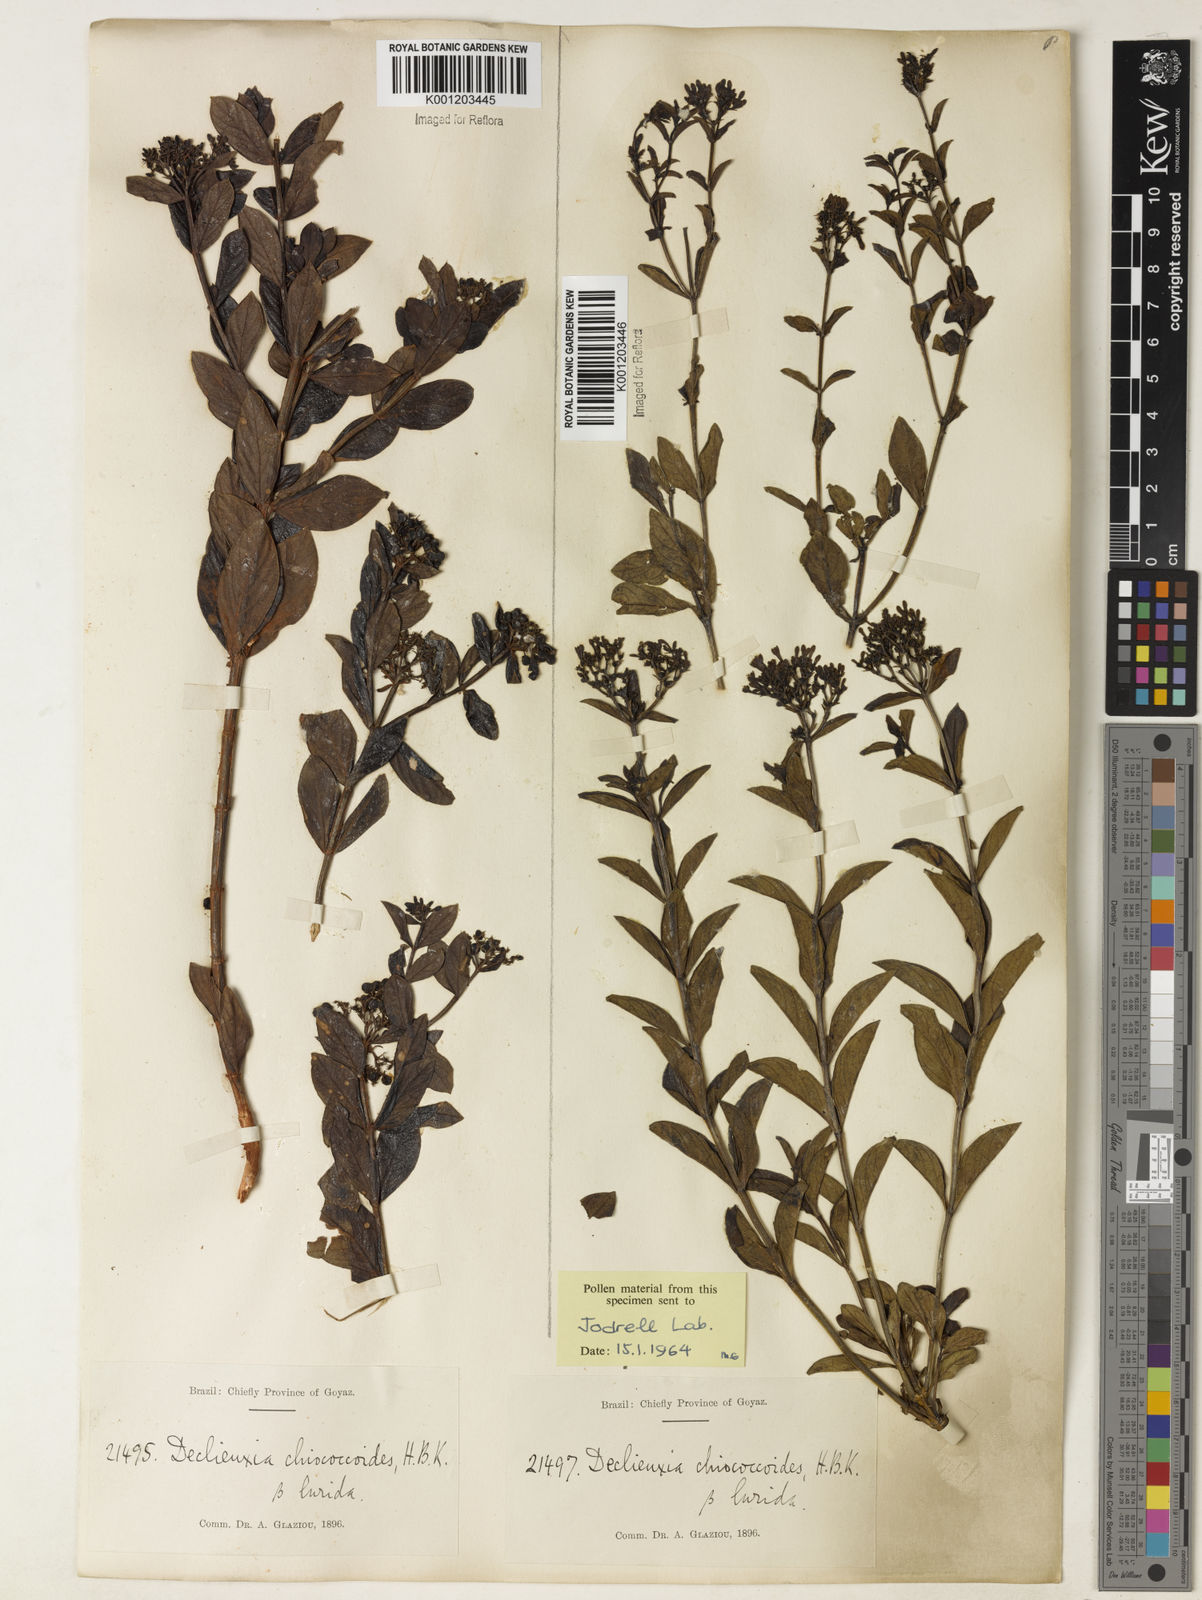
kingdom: Plantae
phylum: Tracheophyta
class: Magnoliopsida
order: Gentianales
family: Rubiaceae
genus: Declieuxia
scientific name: Declieuxia fruticosa
